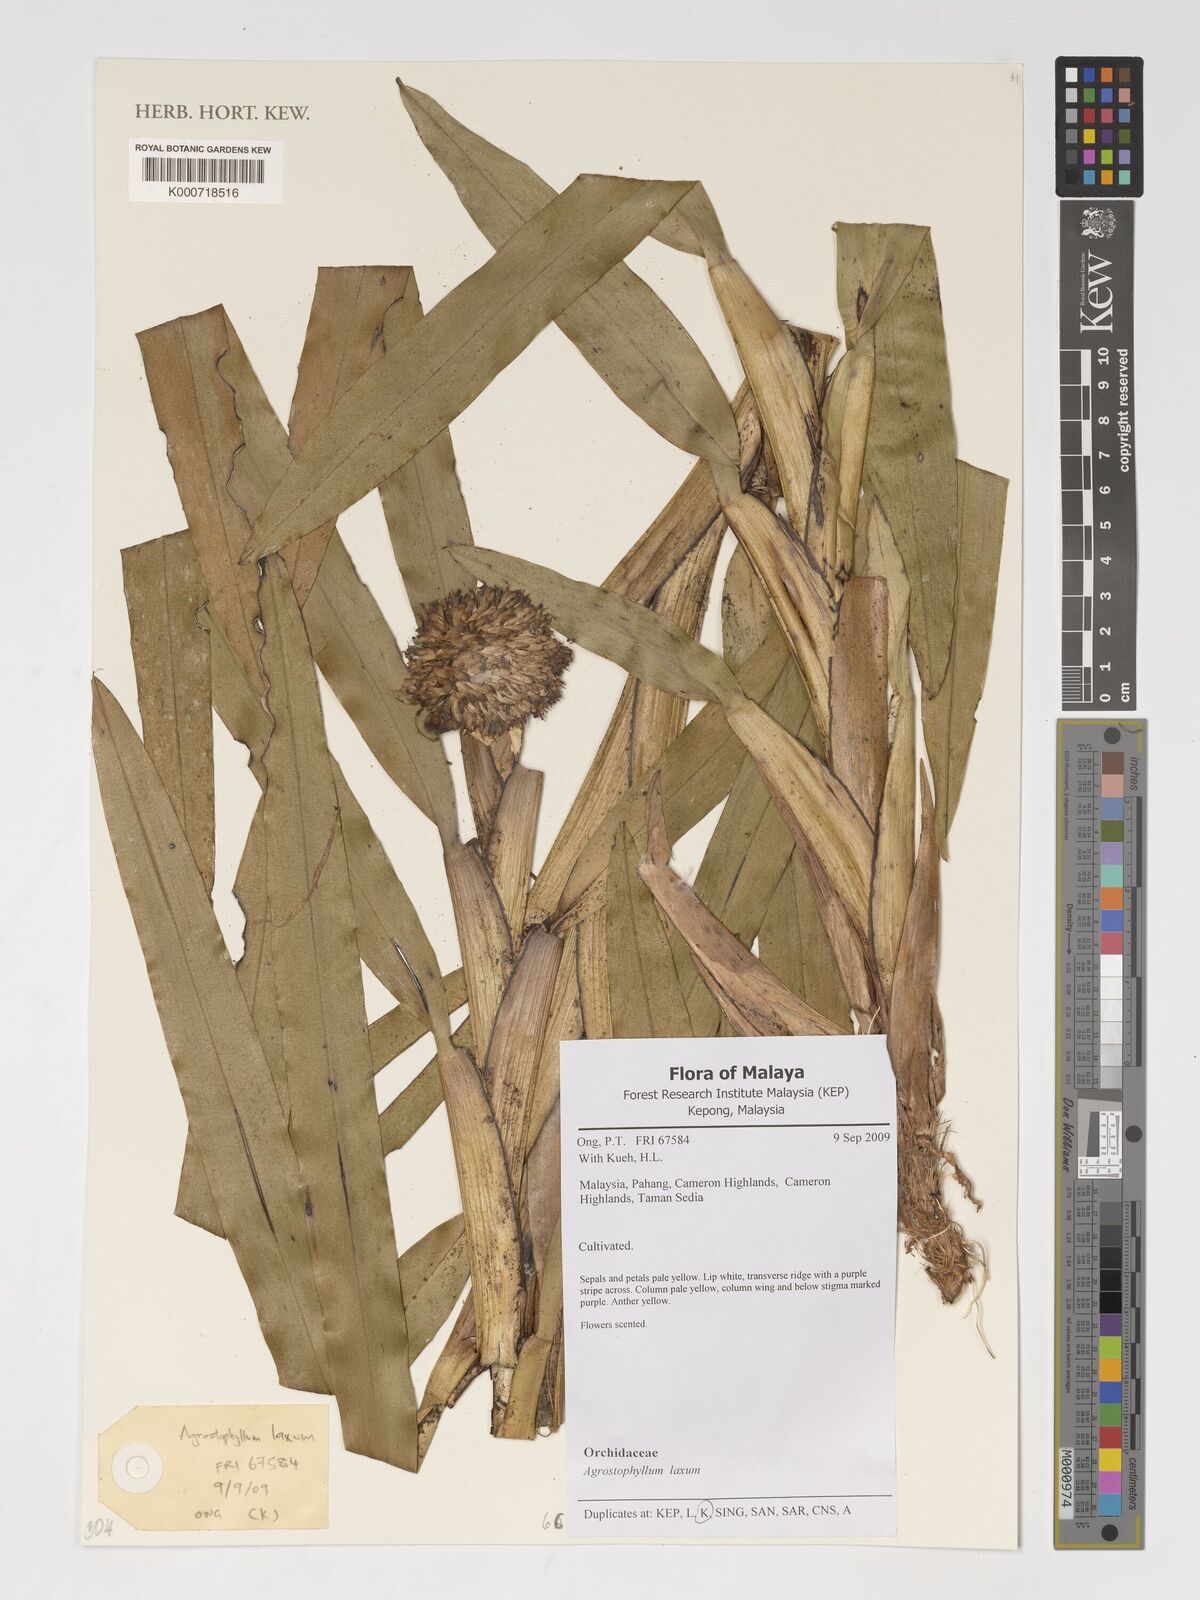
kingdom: Plantae
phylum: Tracheophyta
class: Liliopsida
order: Asparagales
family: Orchidaceae
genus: Agrostophyllum
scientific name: Agrostophyllum laxum
